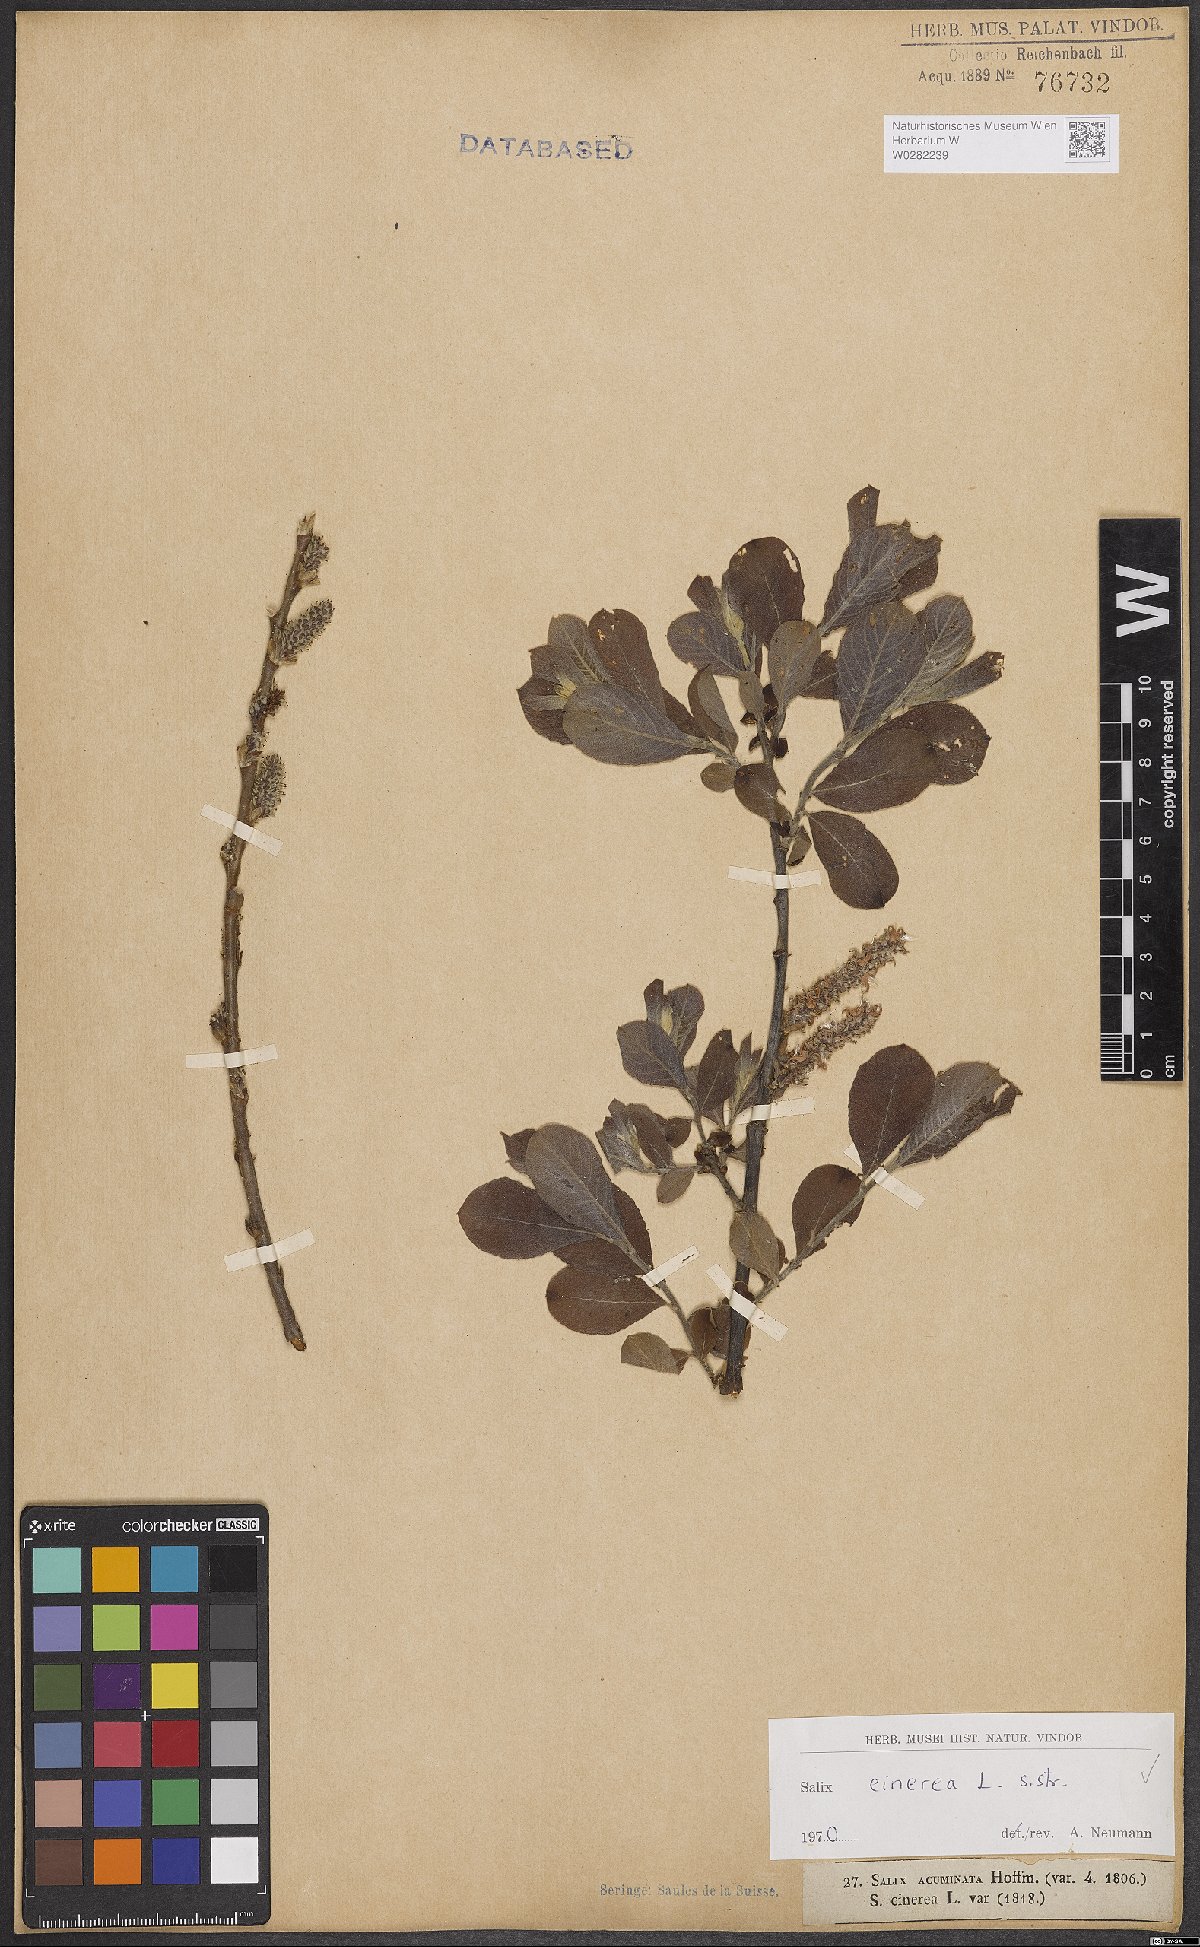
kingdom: Plantae
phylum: Tracheophyta
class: Magnoliopsida
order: Malpighiales
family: Salicaceae
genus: Salix
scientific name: Salix cinerea
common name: Common sallow
